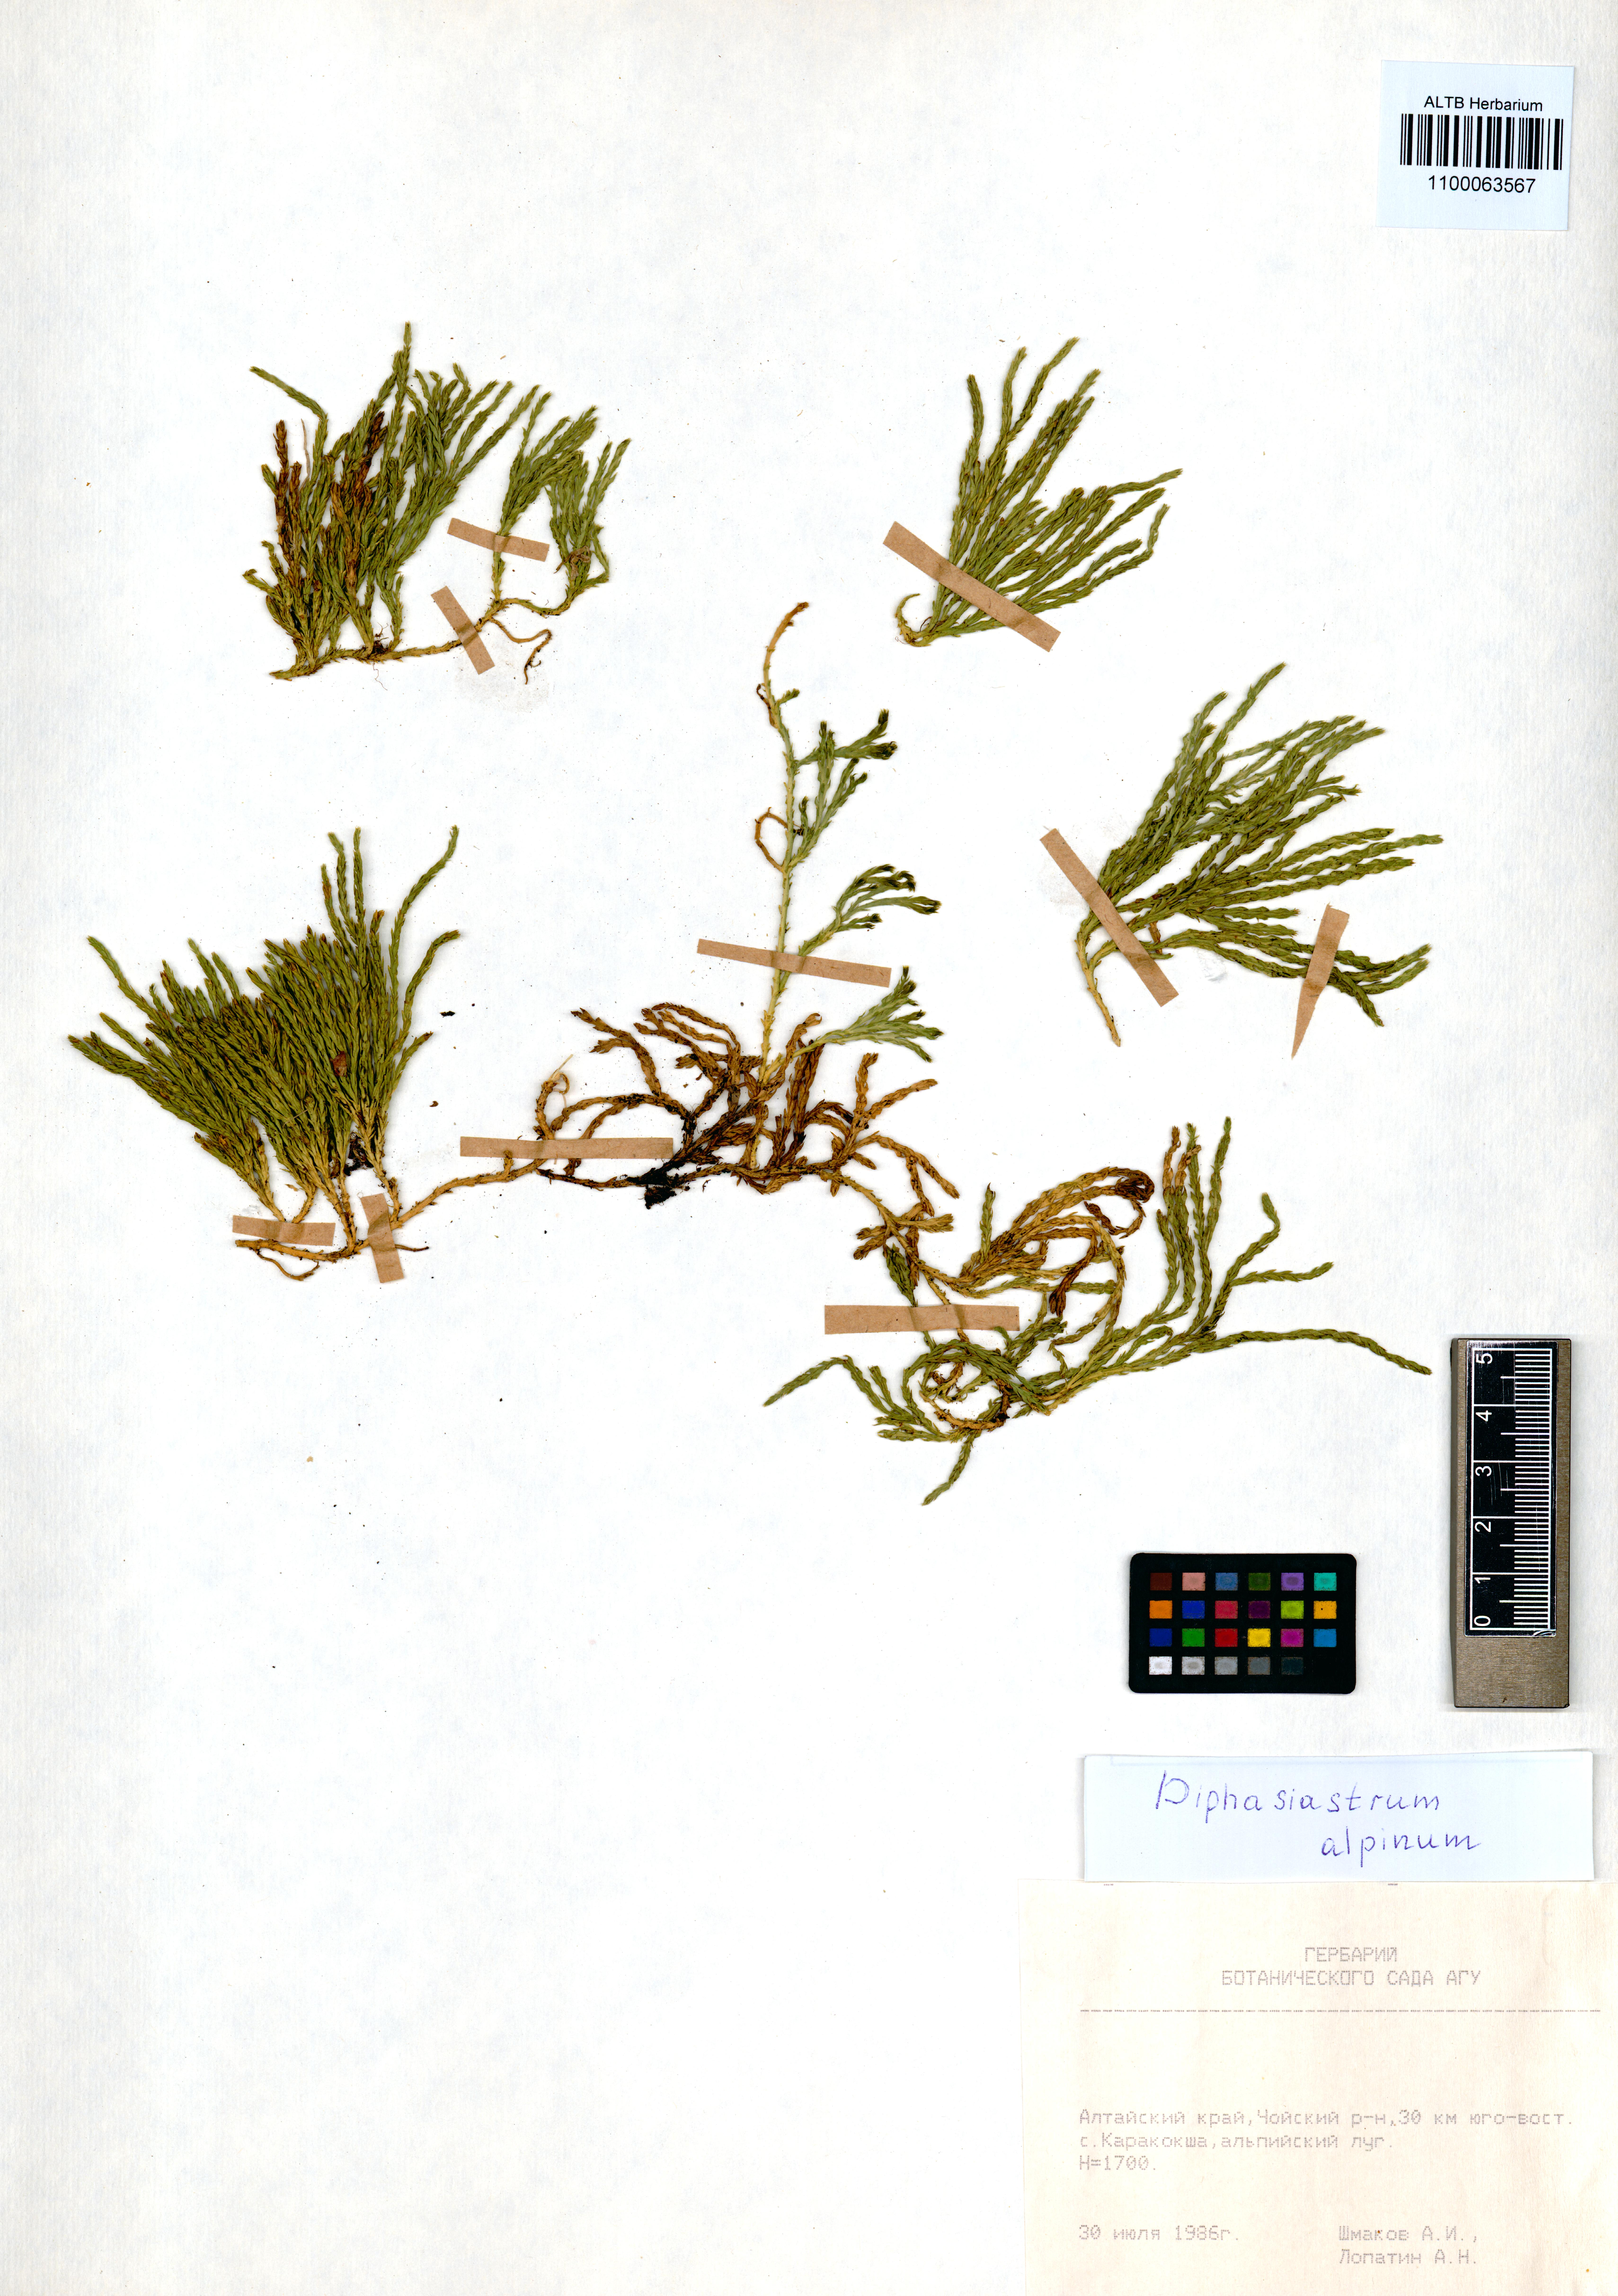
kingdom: Plantae
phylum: Tracheophyta
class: Lycopodiopsida
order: Lycopodiales
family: Lycopodiaceae
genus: Diphasiastrum
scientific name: Diphasiastrum alpinum
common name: Alpine clubmoss
